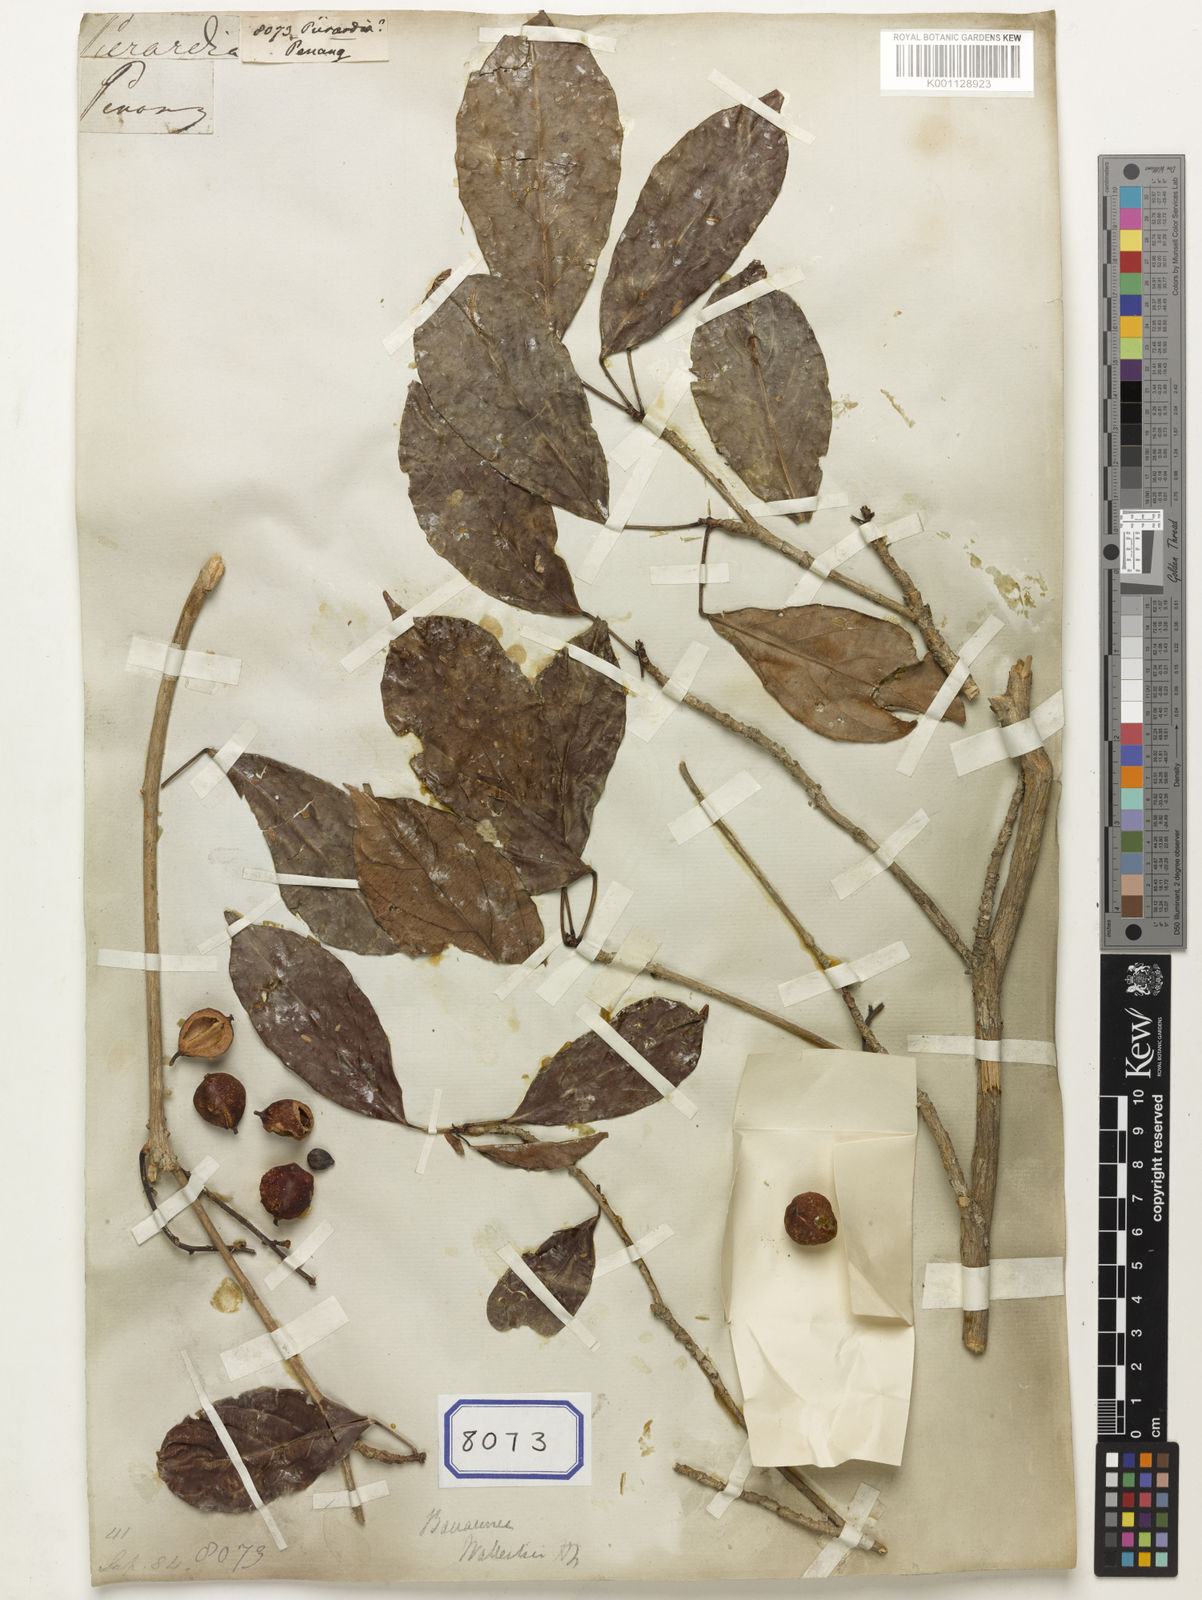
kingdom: Plantae
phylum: Tracheophyta
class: Magnoliopsida
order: Malpighiales
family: Phyllanthaceae
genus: Baccaurea
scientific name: Baccaurea
